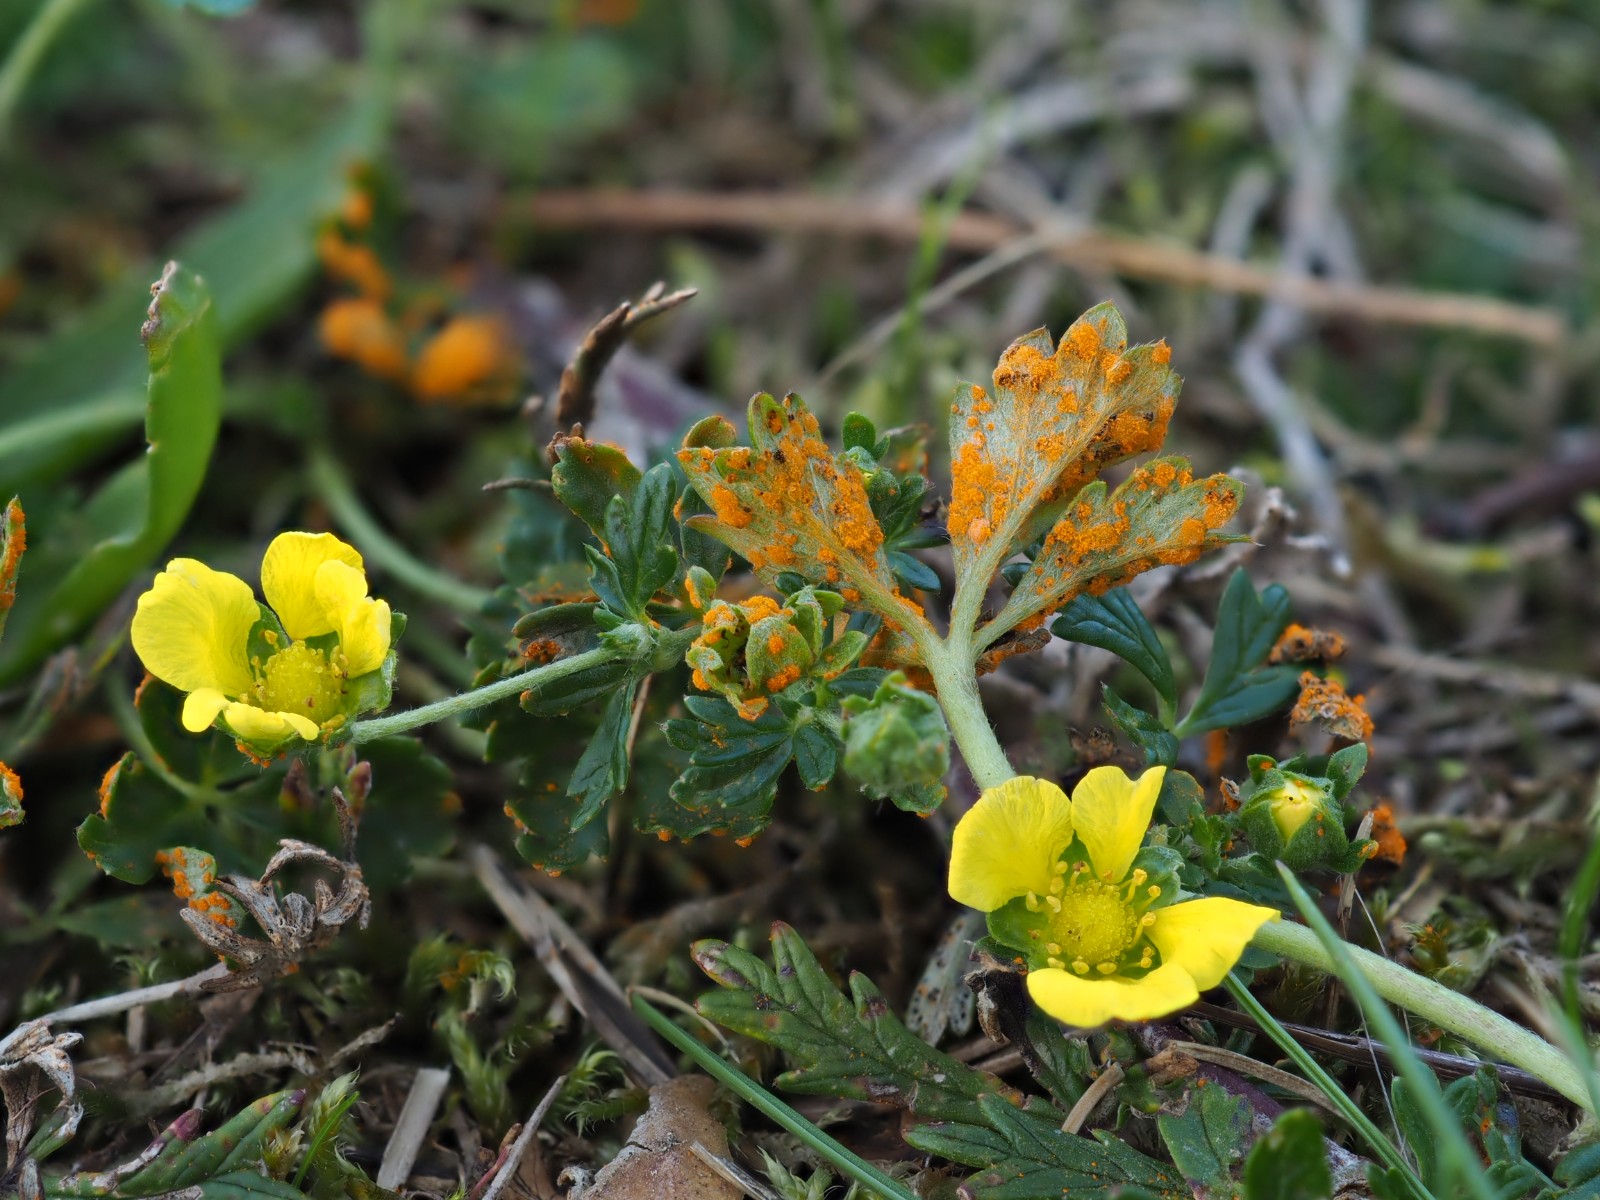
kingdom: Fungi
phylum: Basidiomycota
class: Pucciniomycetes
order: Pucciniales
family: Phragmidiaceae
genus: Phragmidium
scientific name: Phragmidium potentillae
